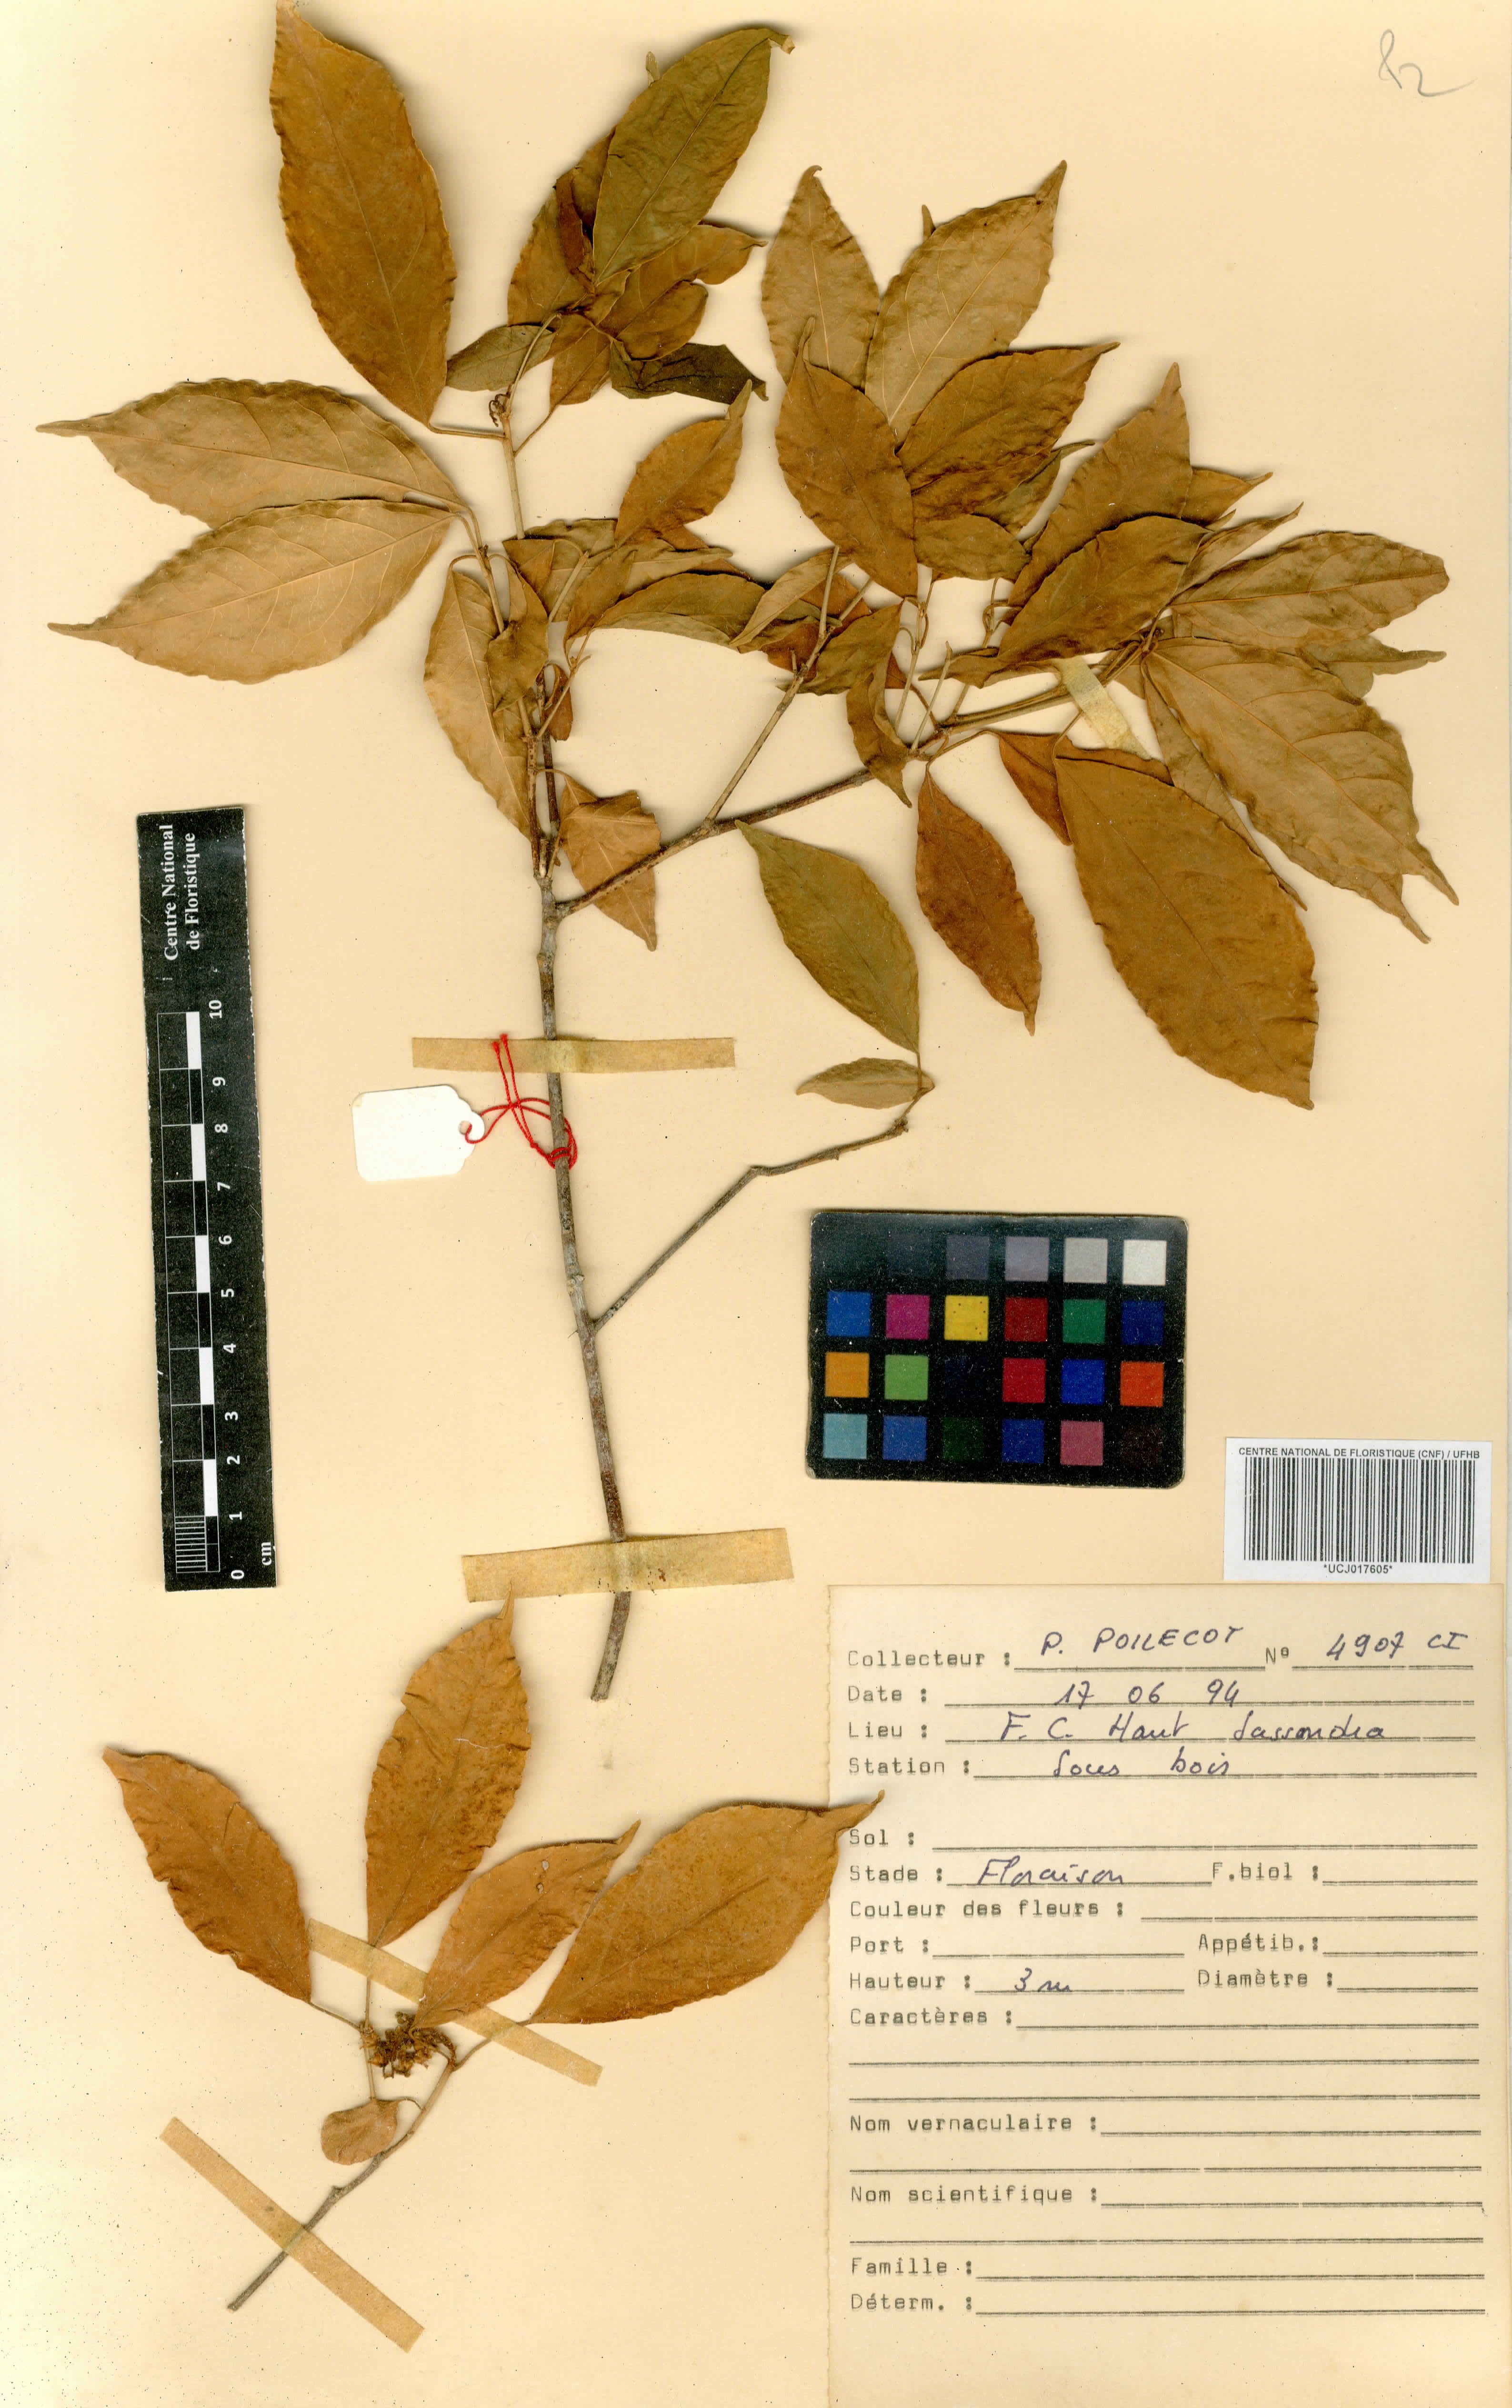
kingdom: Plantae
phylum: Tracheophyta
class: Magnoliopsida
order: Malpighiales
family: Violaceae
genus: Rinorea
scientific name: Rinorea subintegrifolia
